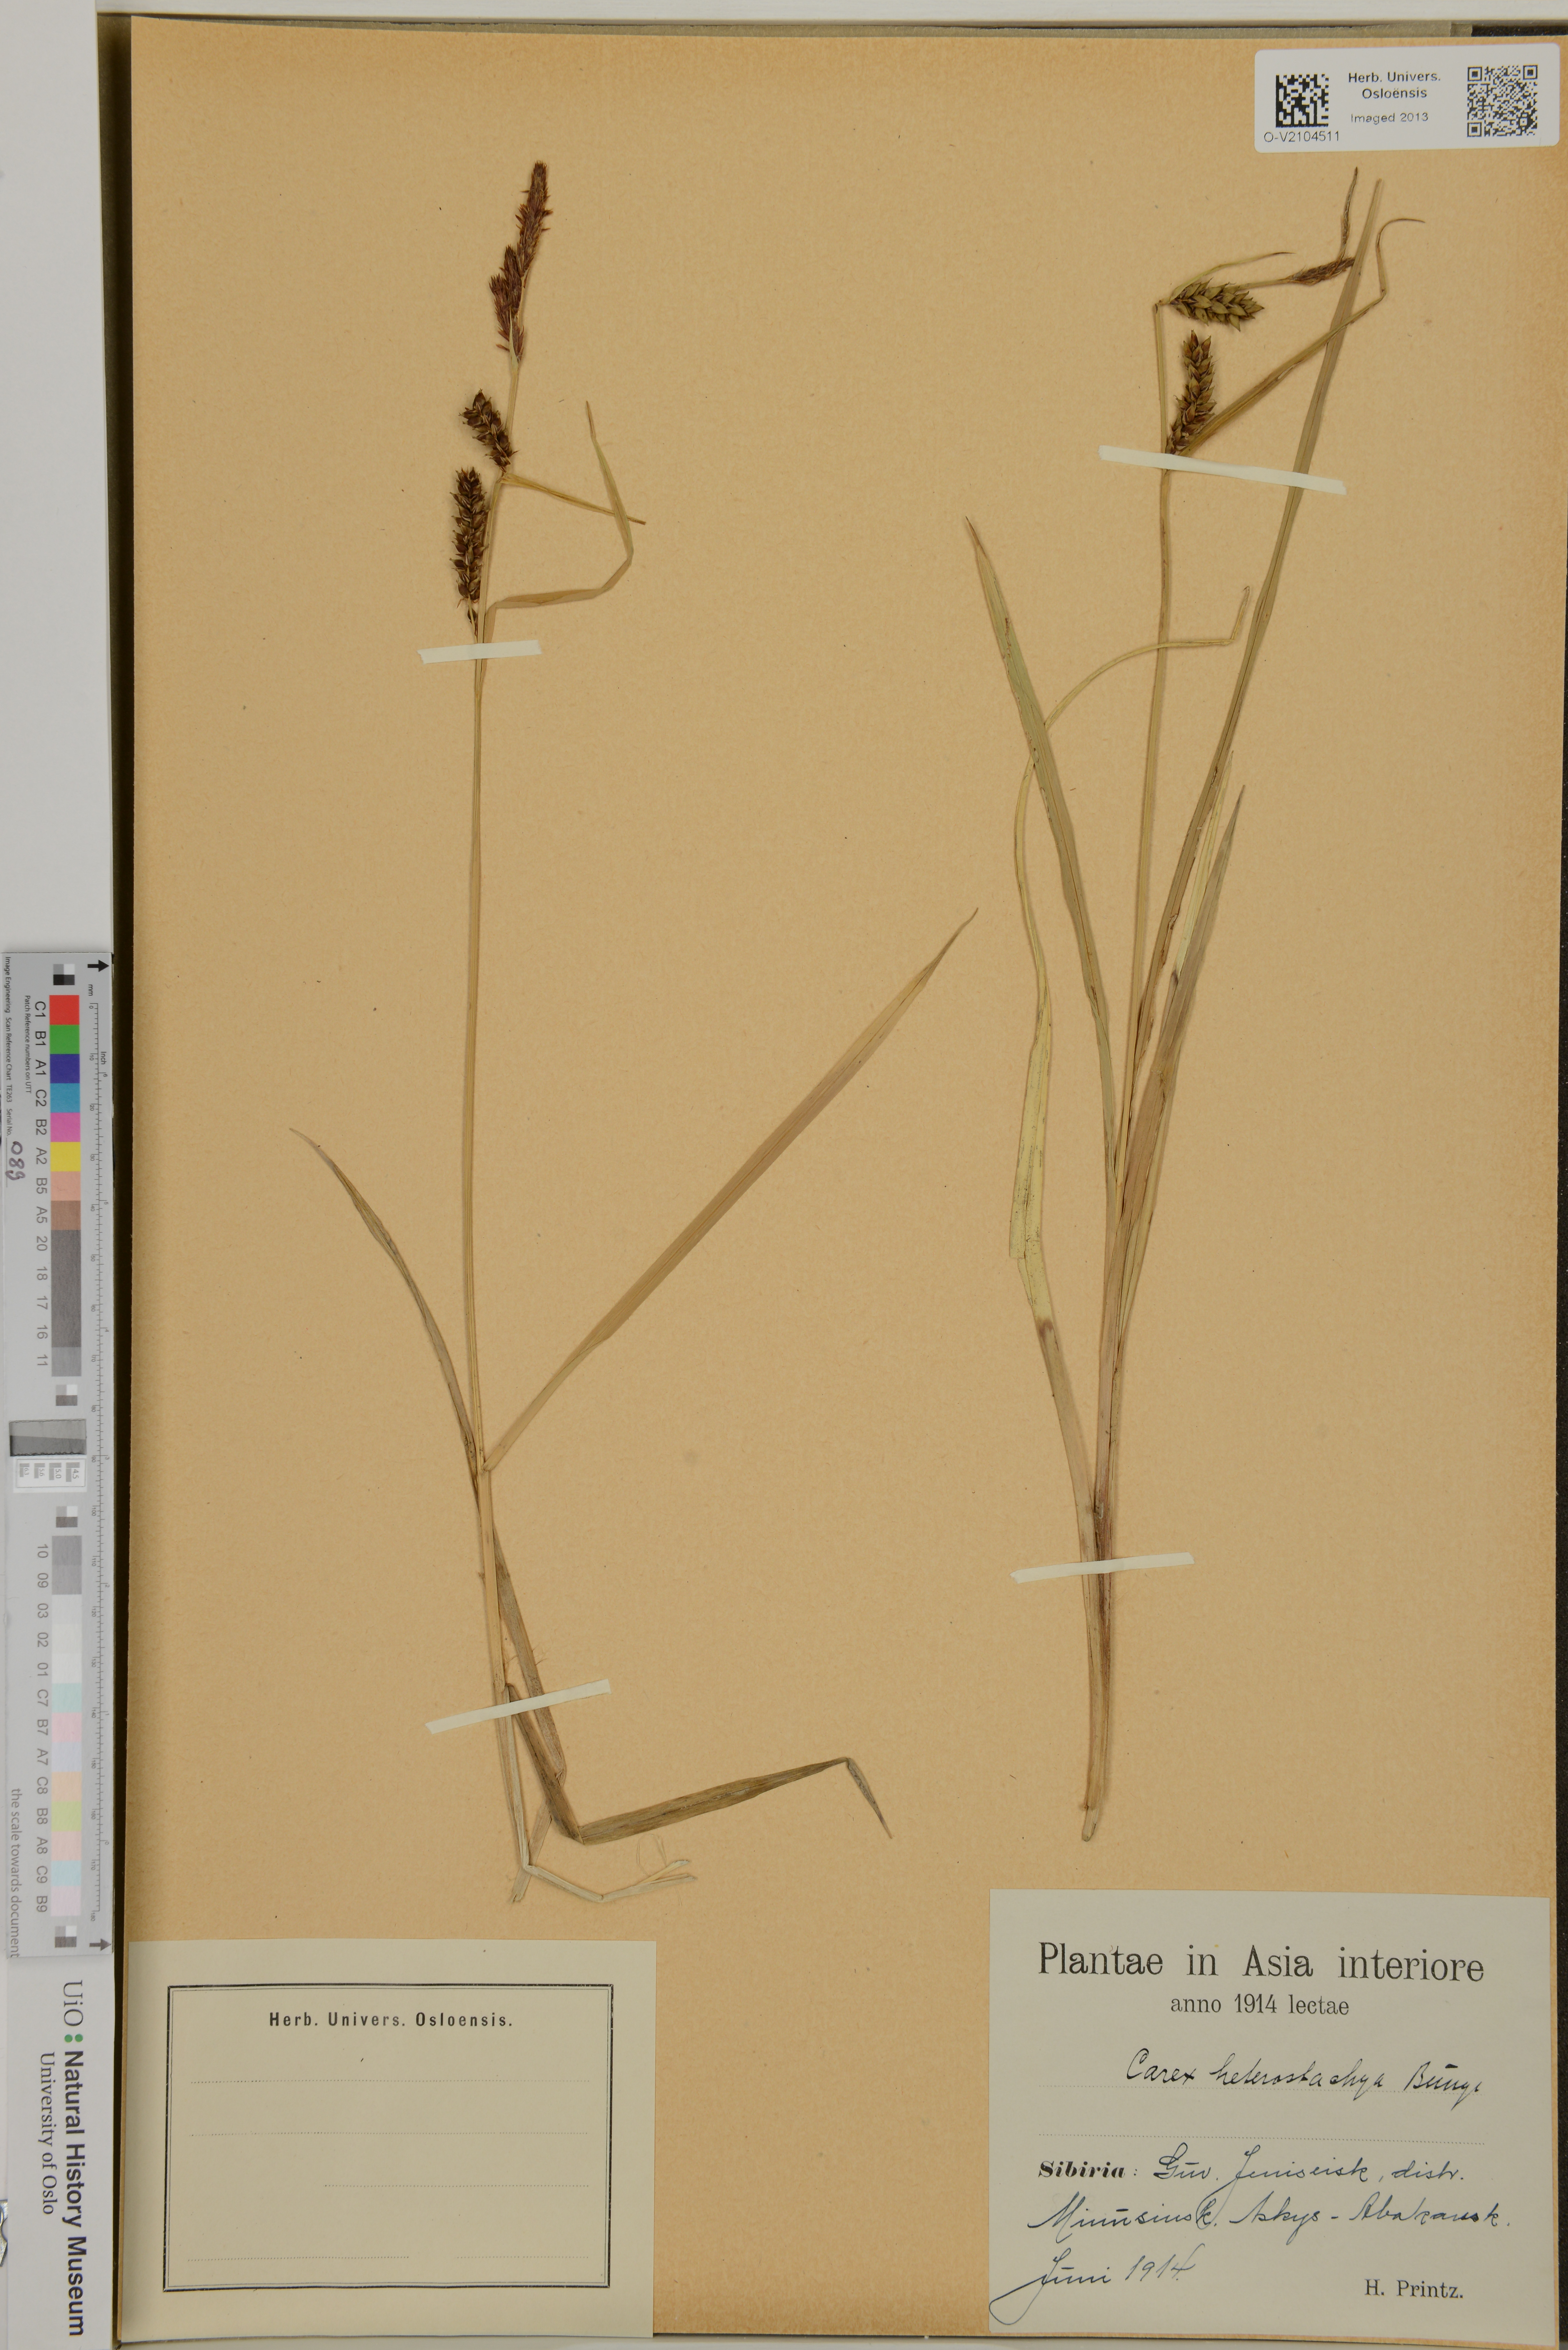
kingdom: Plantae
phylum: Tracheophyta
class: Liliopsida
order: Poales
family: Cyperaceae
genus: Carex
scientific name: Carex heterostachya
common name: Different-spike sedge
